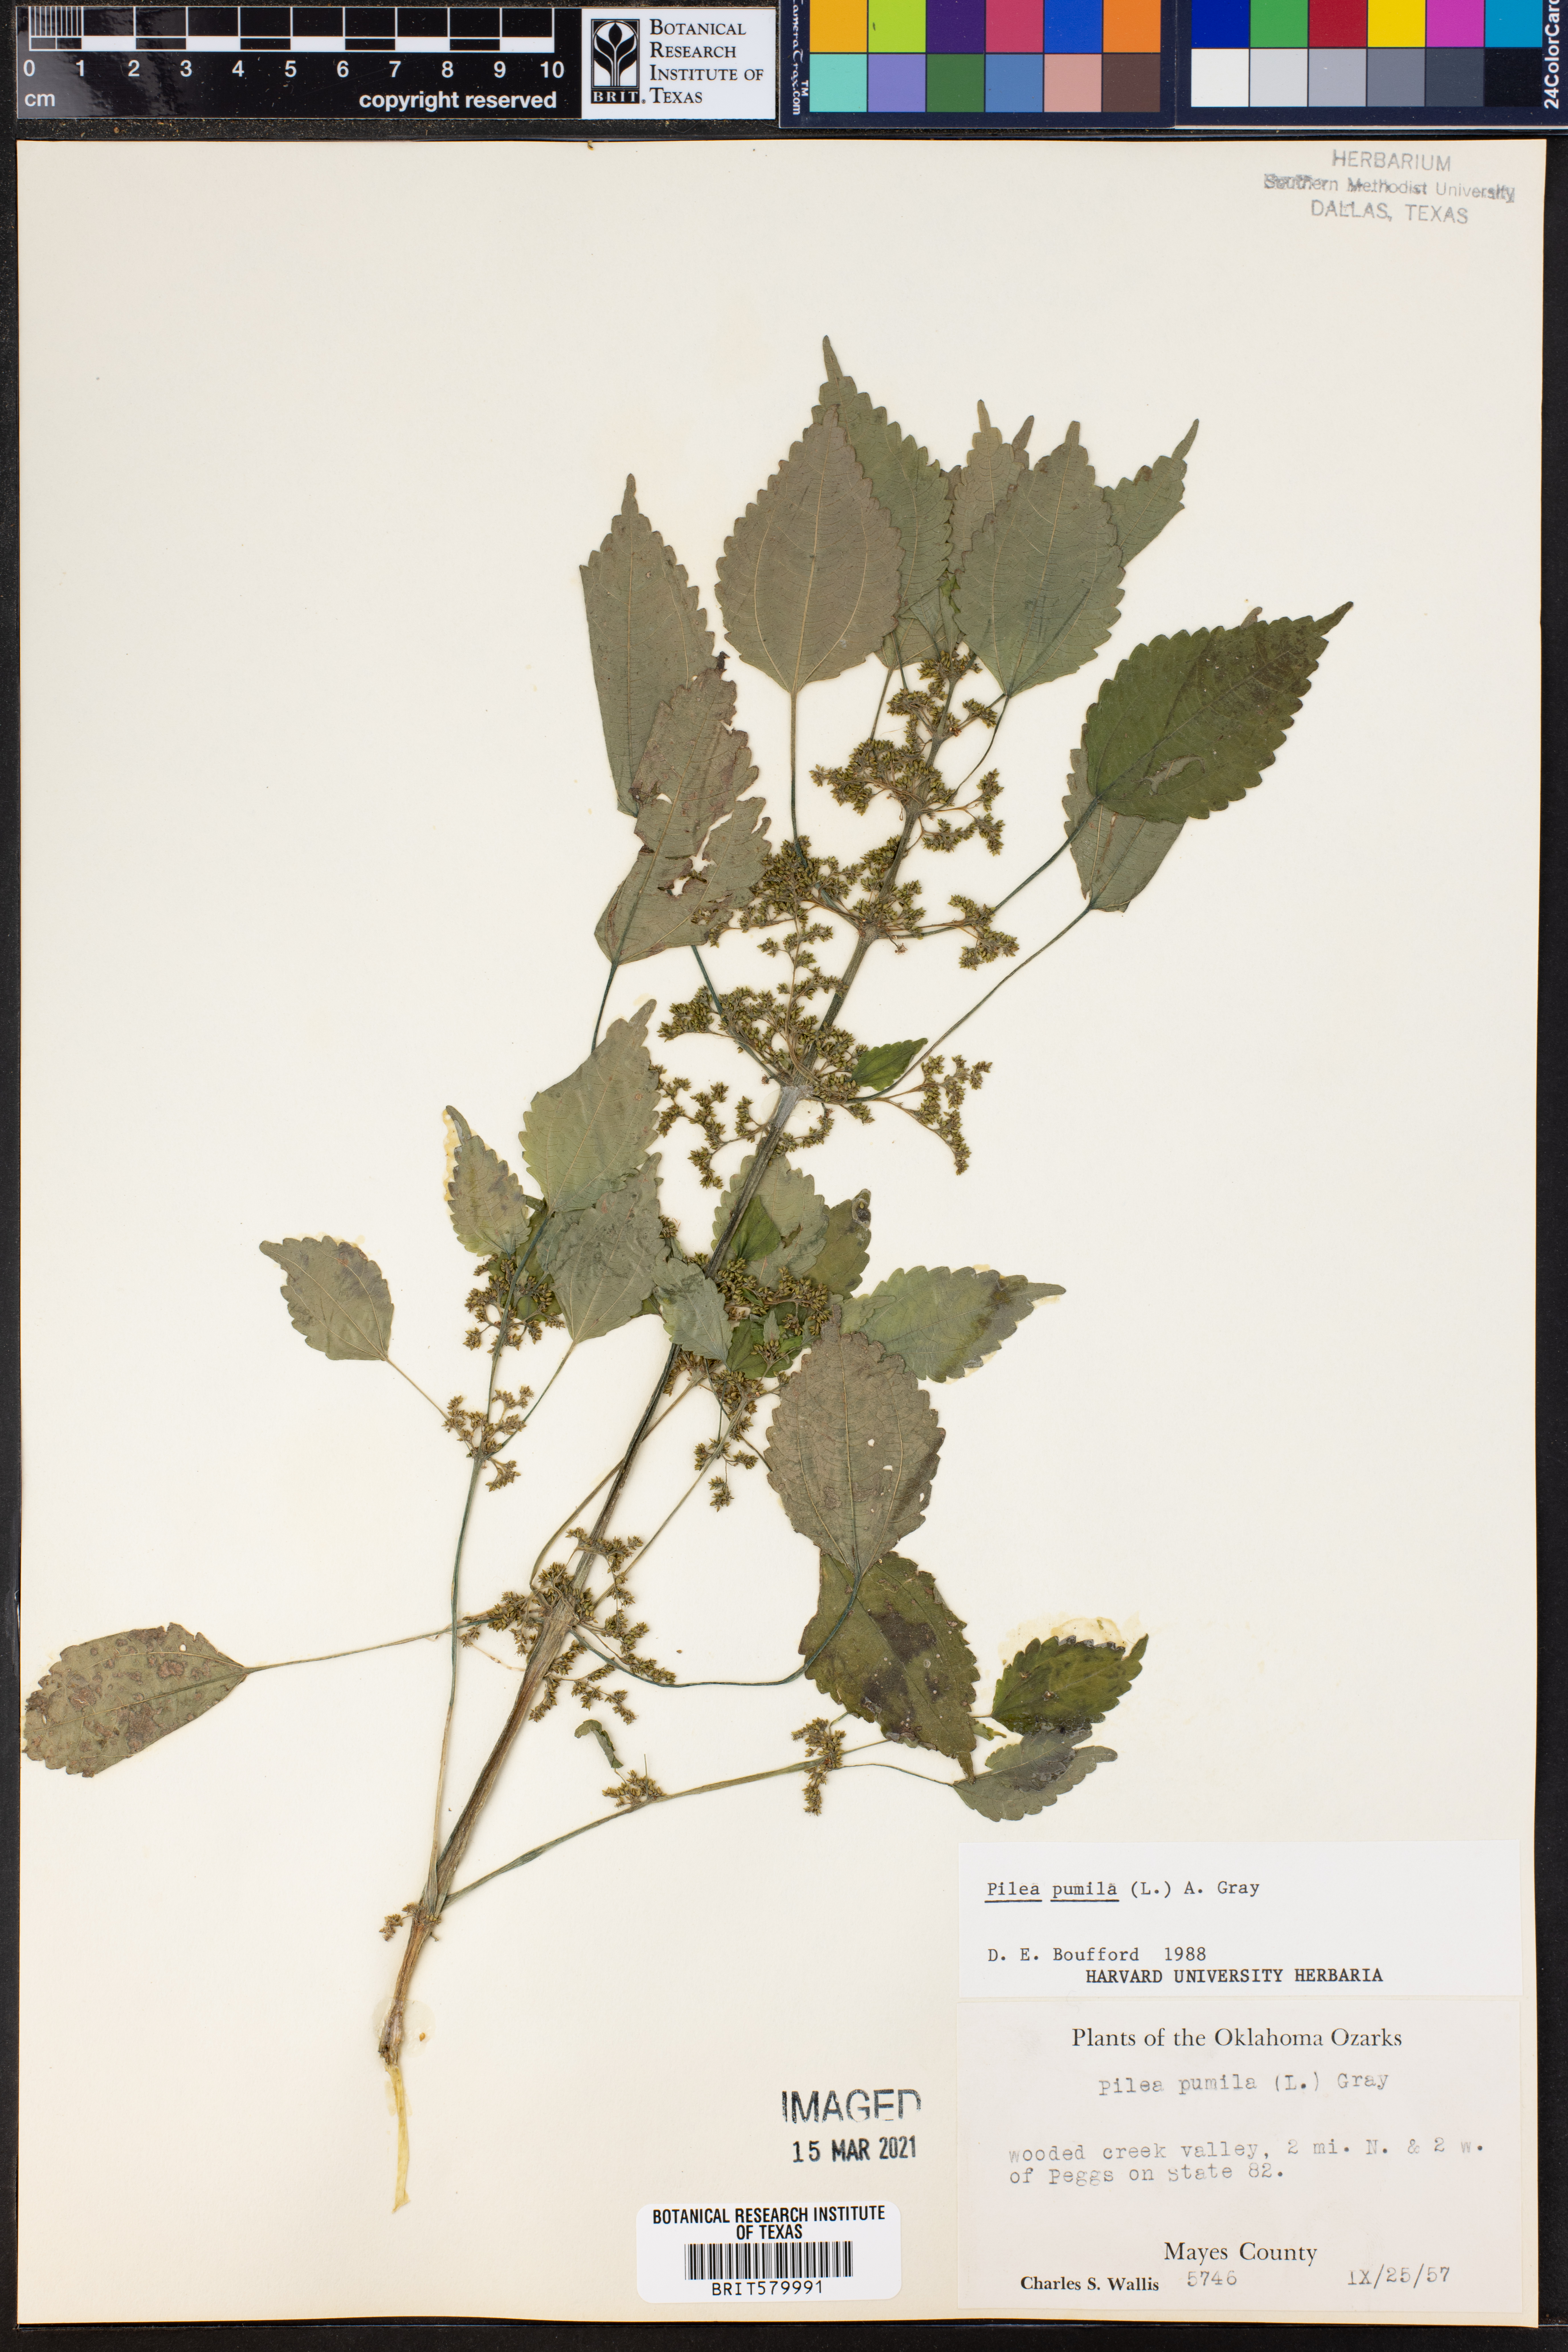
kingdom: Plantae
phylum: Tracheophyta
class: Magnoliopsida
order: Rosales
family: Urticaceae
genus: Pilea
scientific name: Pilea pumila
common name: Clearweed
